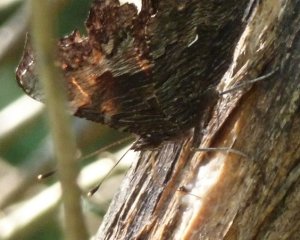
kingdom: Animalia
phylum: Arthropoda
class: Insecta
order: Lepidoptera
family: Nymphalidae
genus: Polygonia
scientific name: Polygonia progne
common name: Gray Comma
